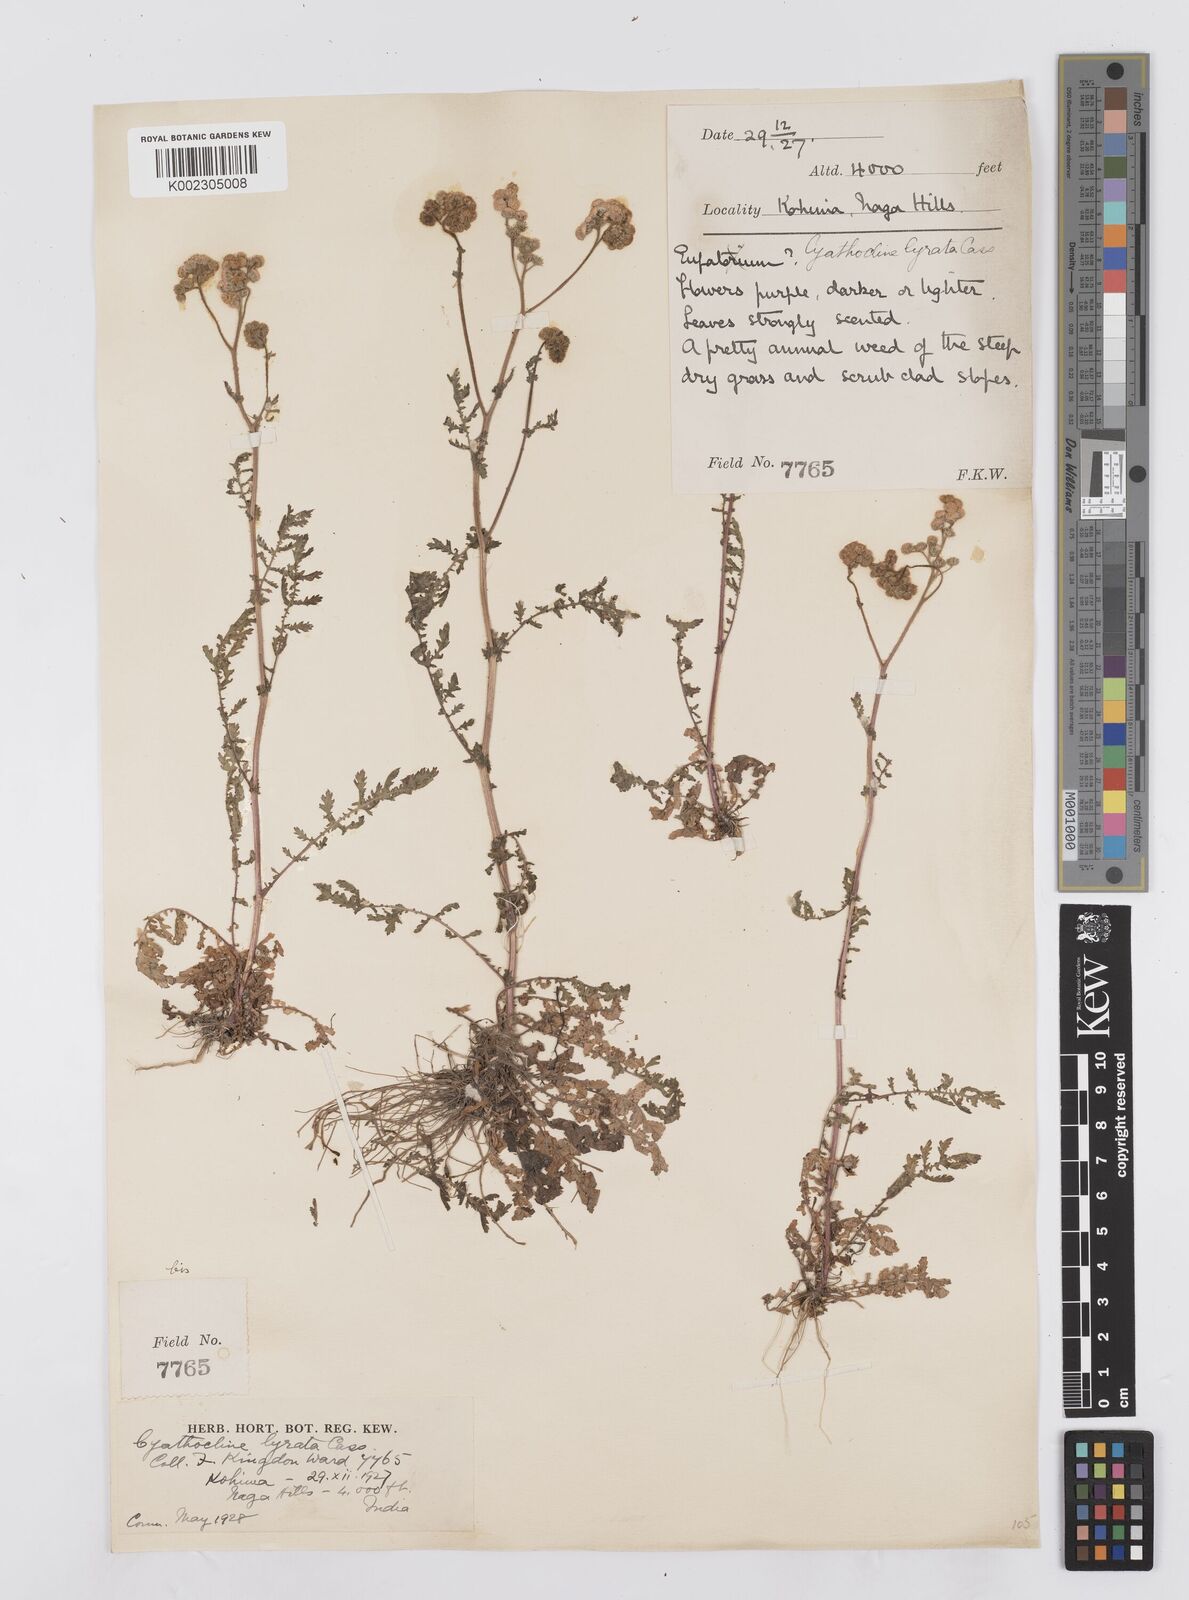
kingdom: Plantae
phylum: Tracheophyta
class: Magnoliopsida
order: Asterales
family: Asteraceae
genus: Cyathocline
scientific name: Cyathocline purpurea
